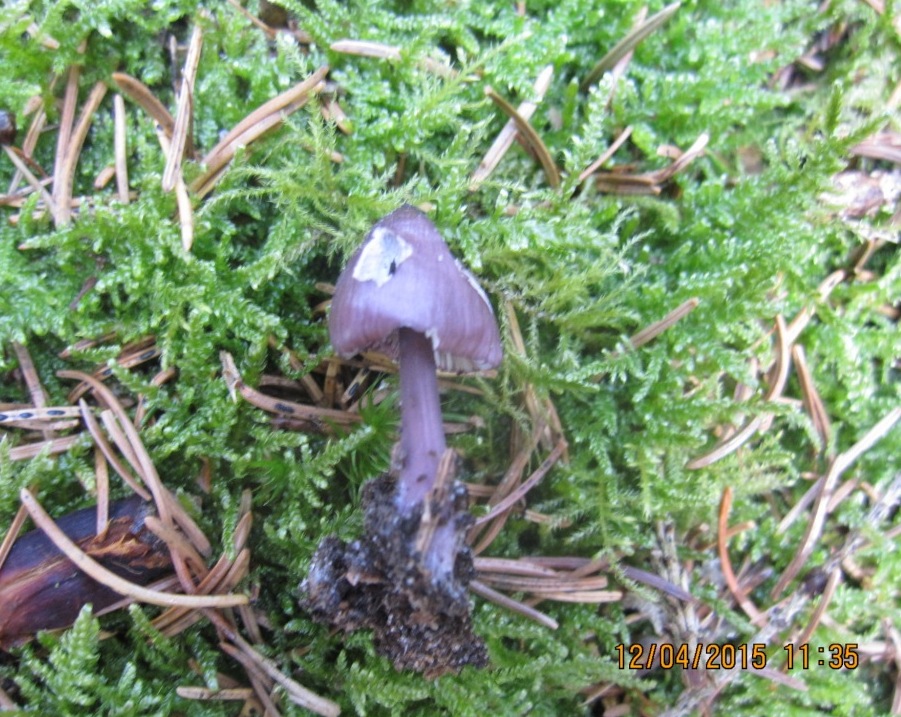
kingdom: Fungi
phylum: Basidiomycota
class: Agaricomycetes
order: Agaricales
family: Mycenaceae
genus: Mycena
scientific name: Mycena purpureofusca
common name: purpur-huesvamp
